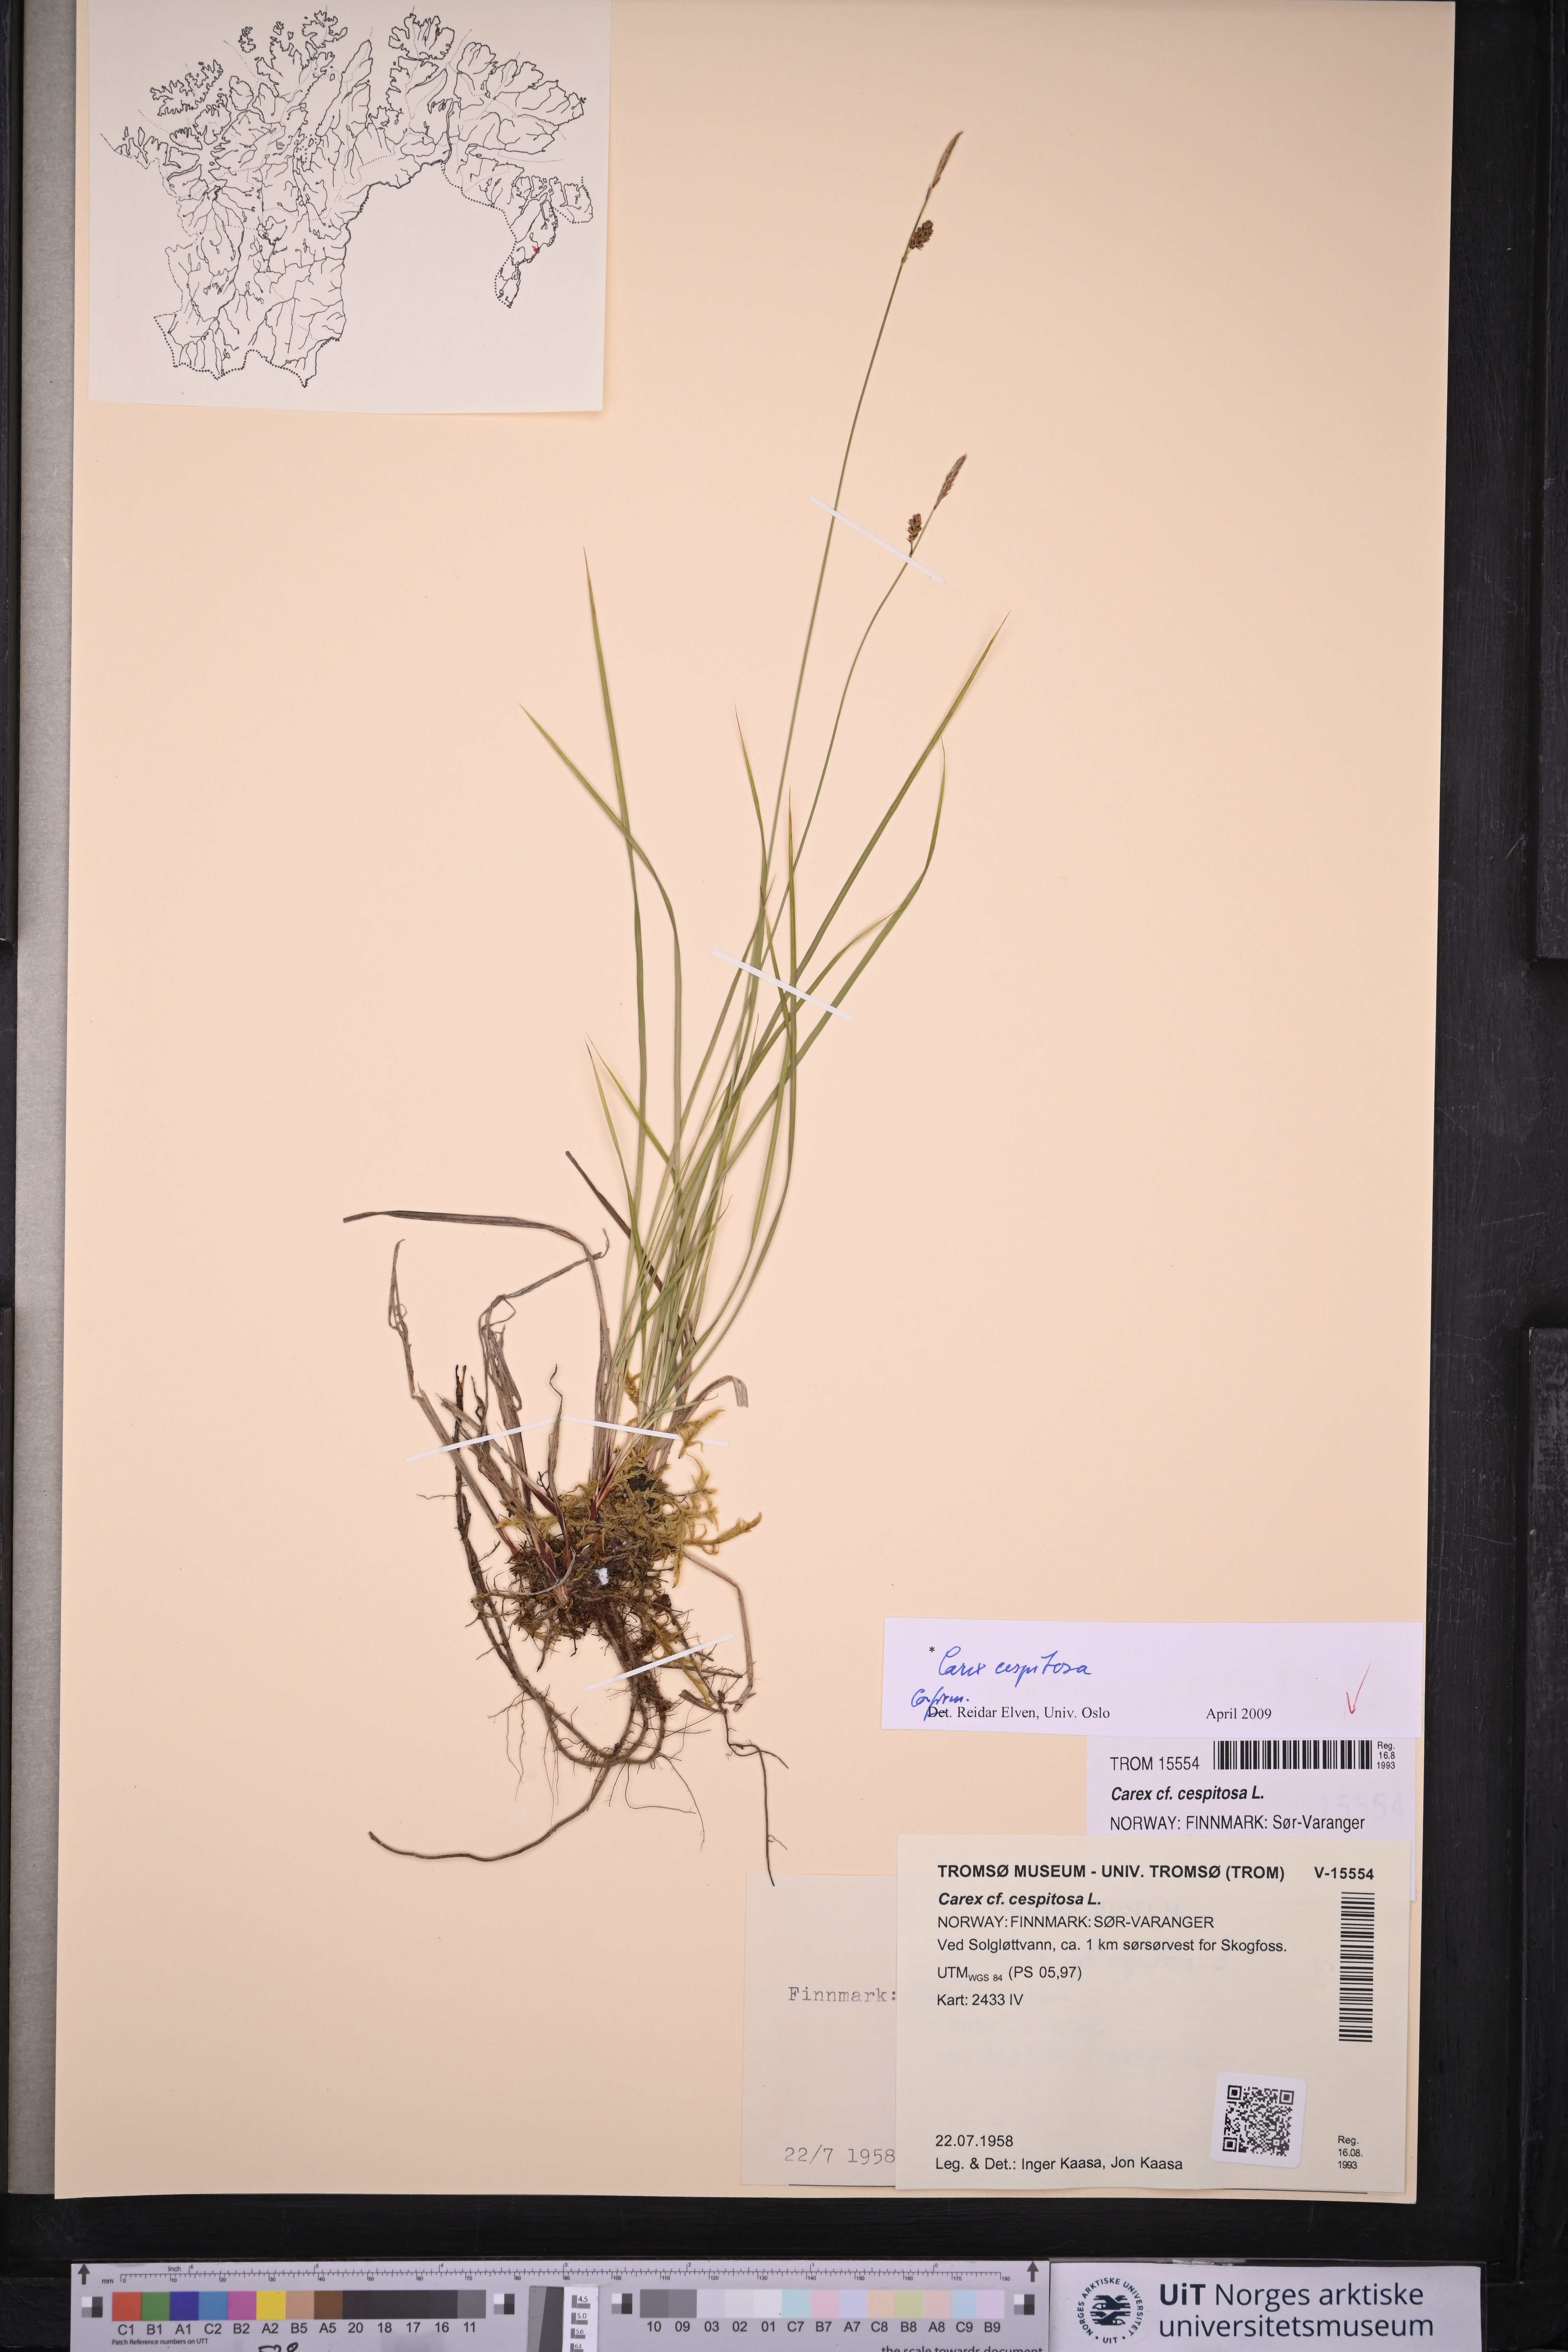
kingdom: Plantae
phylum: Tracheophyta
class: Liliopsida
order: Poales
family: Cyperaceae
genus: Carex
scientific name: Carex cespitosa
